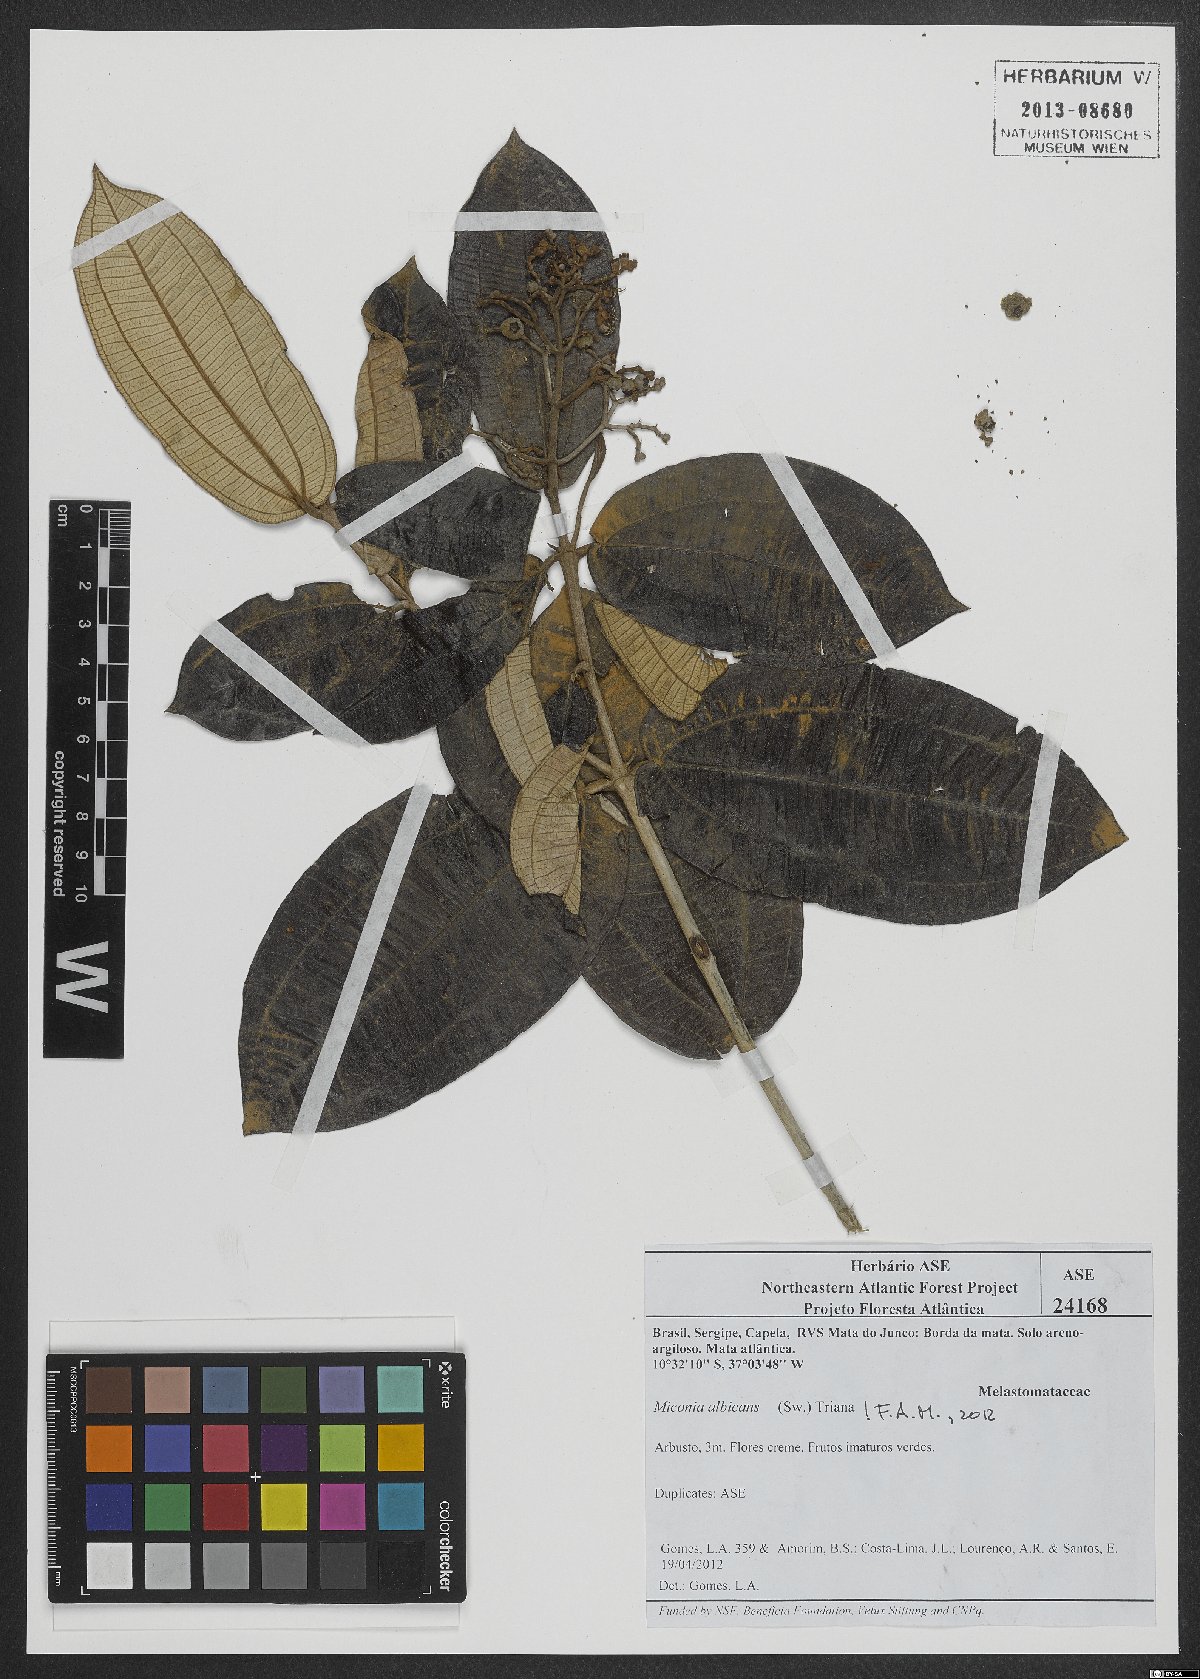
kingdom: Plantae
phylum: Tracheophyta
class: Magnoliopsida
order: Myrtales
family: Melastomataceae
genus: Miconia
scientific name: Miconia albicans
